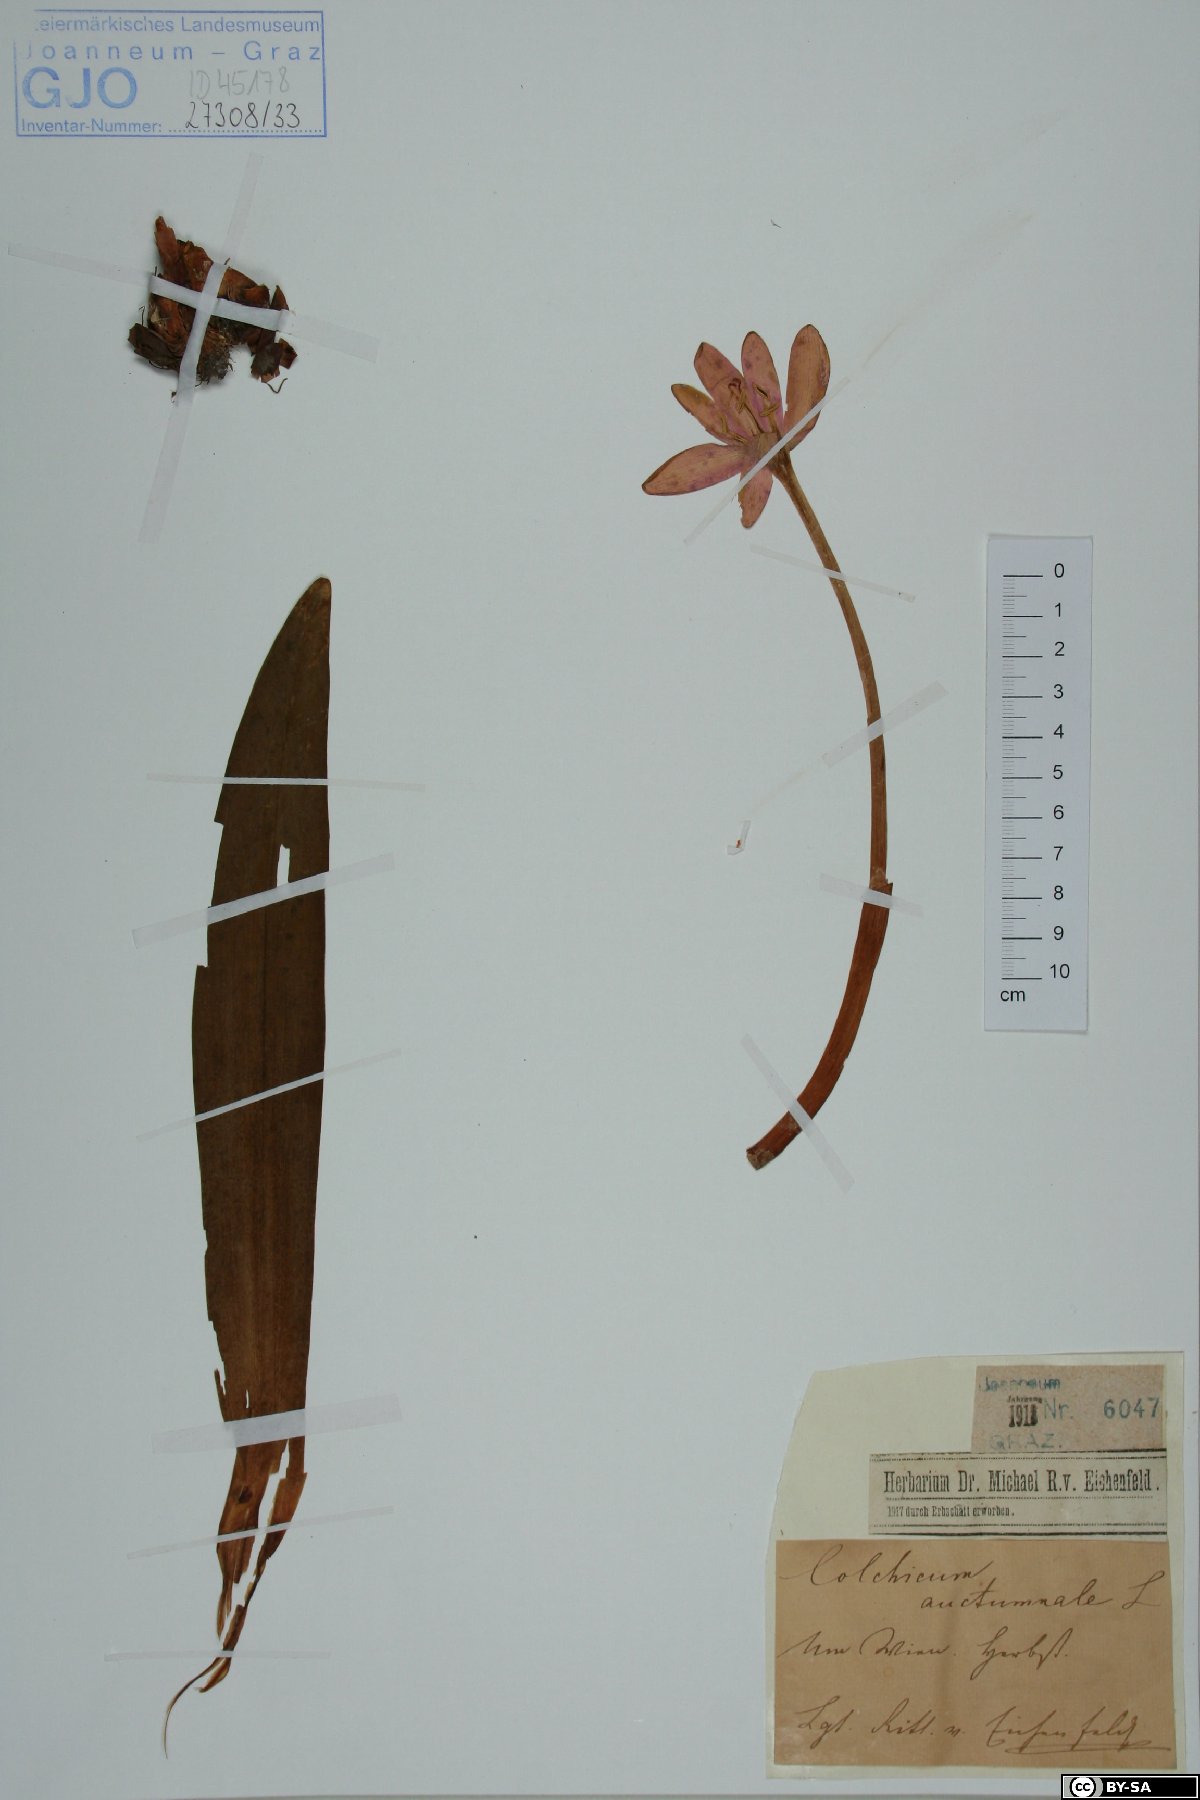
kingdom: Plantae
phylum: Tracheophyta
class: Liliopsida
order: Liliales
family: Colchicaceae
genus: Colchicum
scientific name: Colchicum autumnale
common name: Autumn crocus
